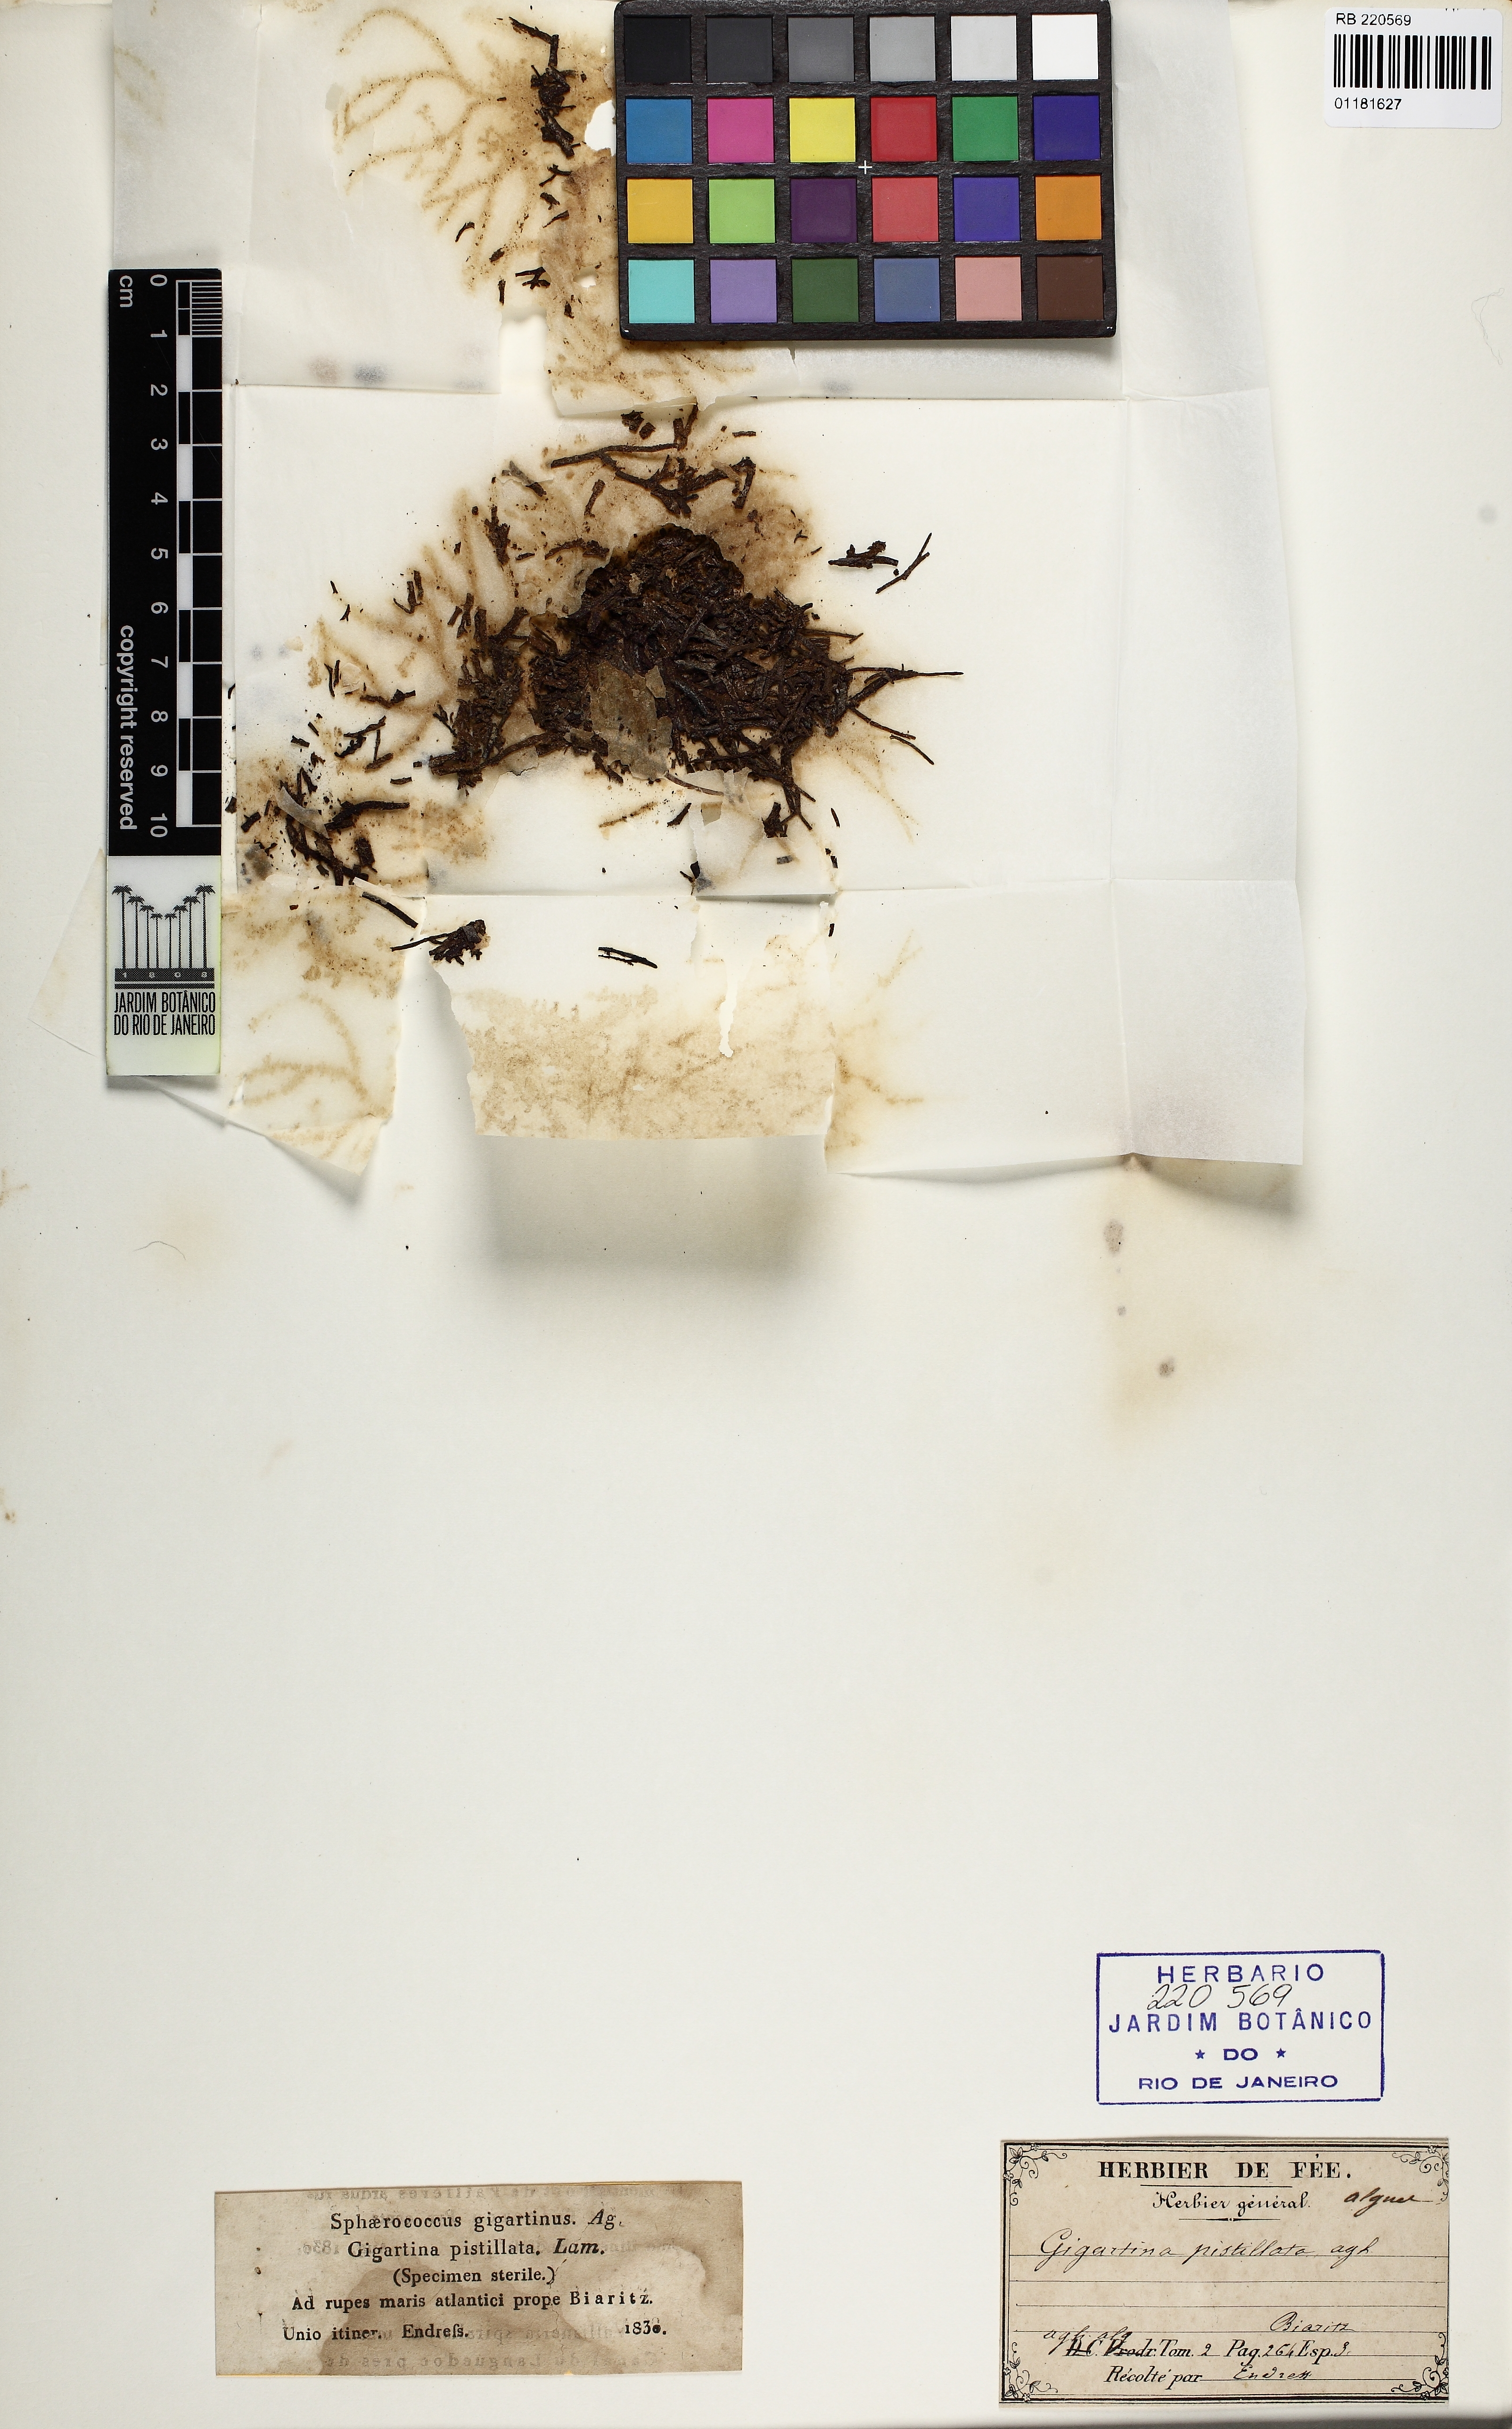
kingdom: Plantae
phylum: Rhodophyta
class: Florideophyceae
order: Gigartinales
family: Gigartinaceae
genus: Gigartina
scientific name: Gigartina pistillata
